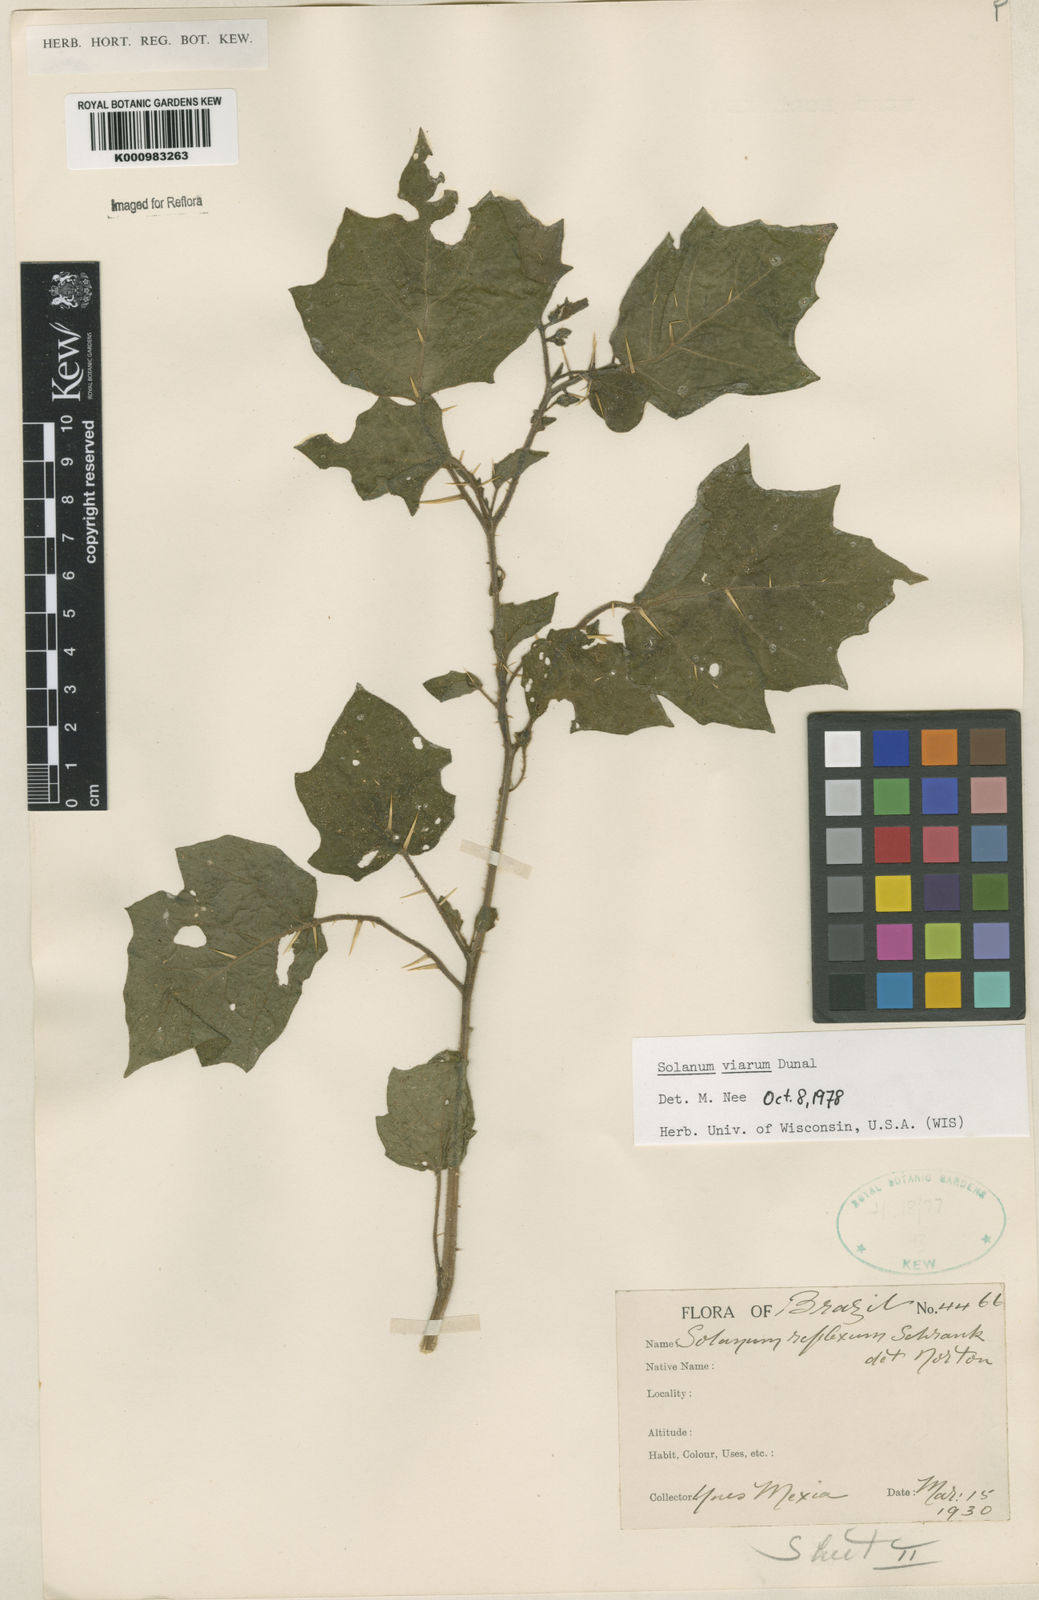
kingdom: Plantae
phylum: Tracheophyta
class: Magnoliopsida
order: Solanales
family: Solanaceae
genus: Solanum
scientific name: Solanum viarum
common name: Tropical soda apple
